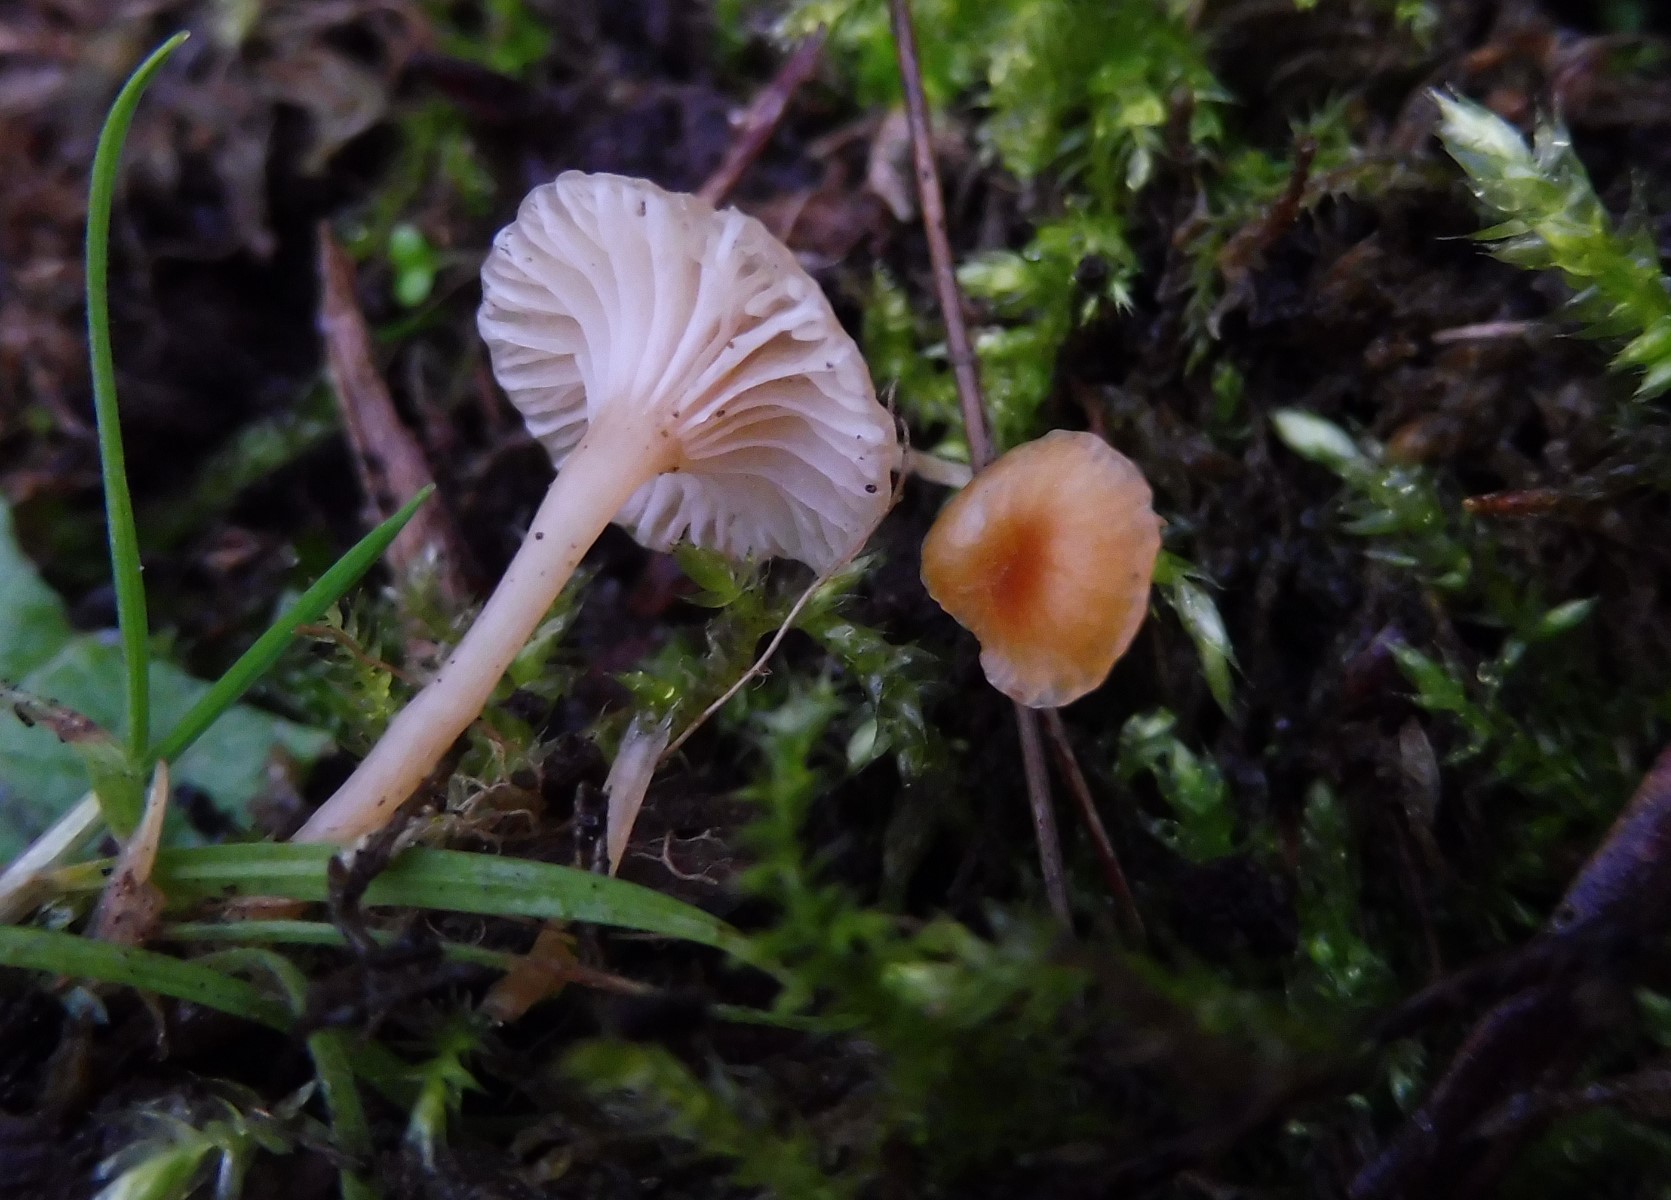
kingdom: Fungi
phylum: Basidiomycota
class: Agaricomycetes
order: Hymenochaetales
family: Rickenellaceae
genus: Rickenella
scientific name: Rickenella fibula
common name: orange mosnavlehat
